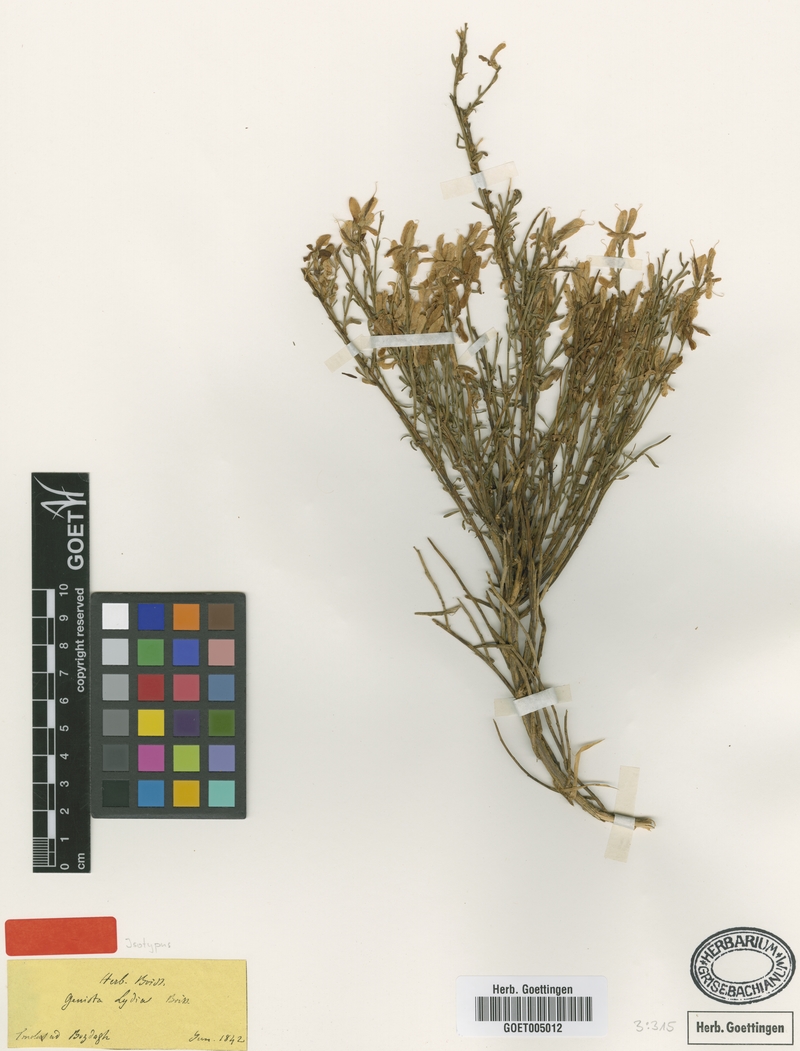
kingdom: Plantae
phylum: Tracheophyta
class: Magnoliopsida
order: Fabales
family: Fabaceae
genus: Genista
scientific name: Genista lydia
